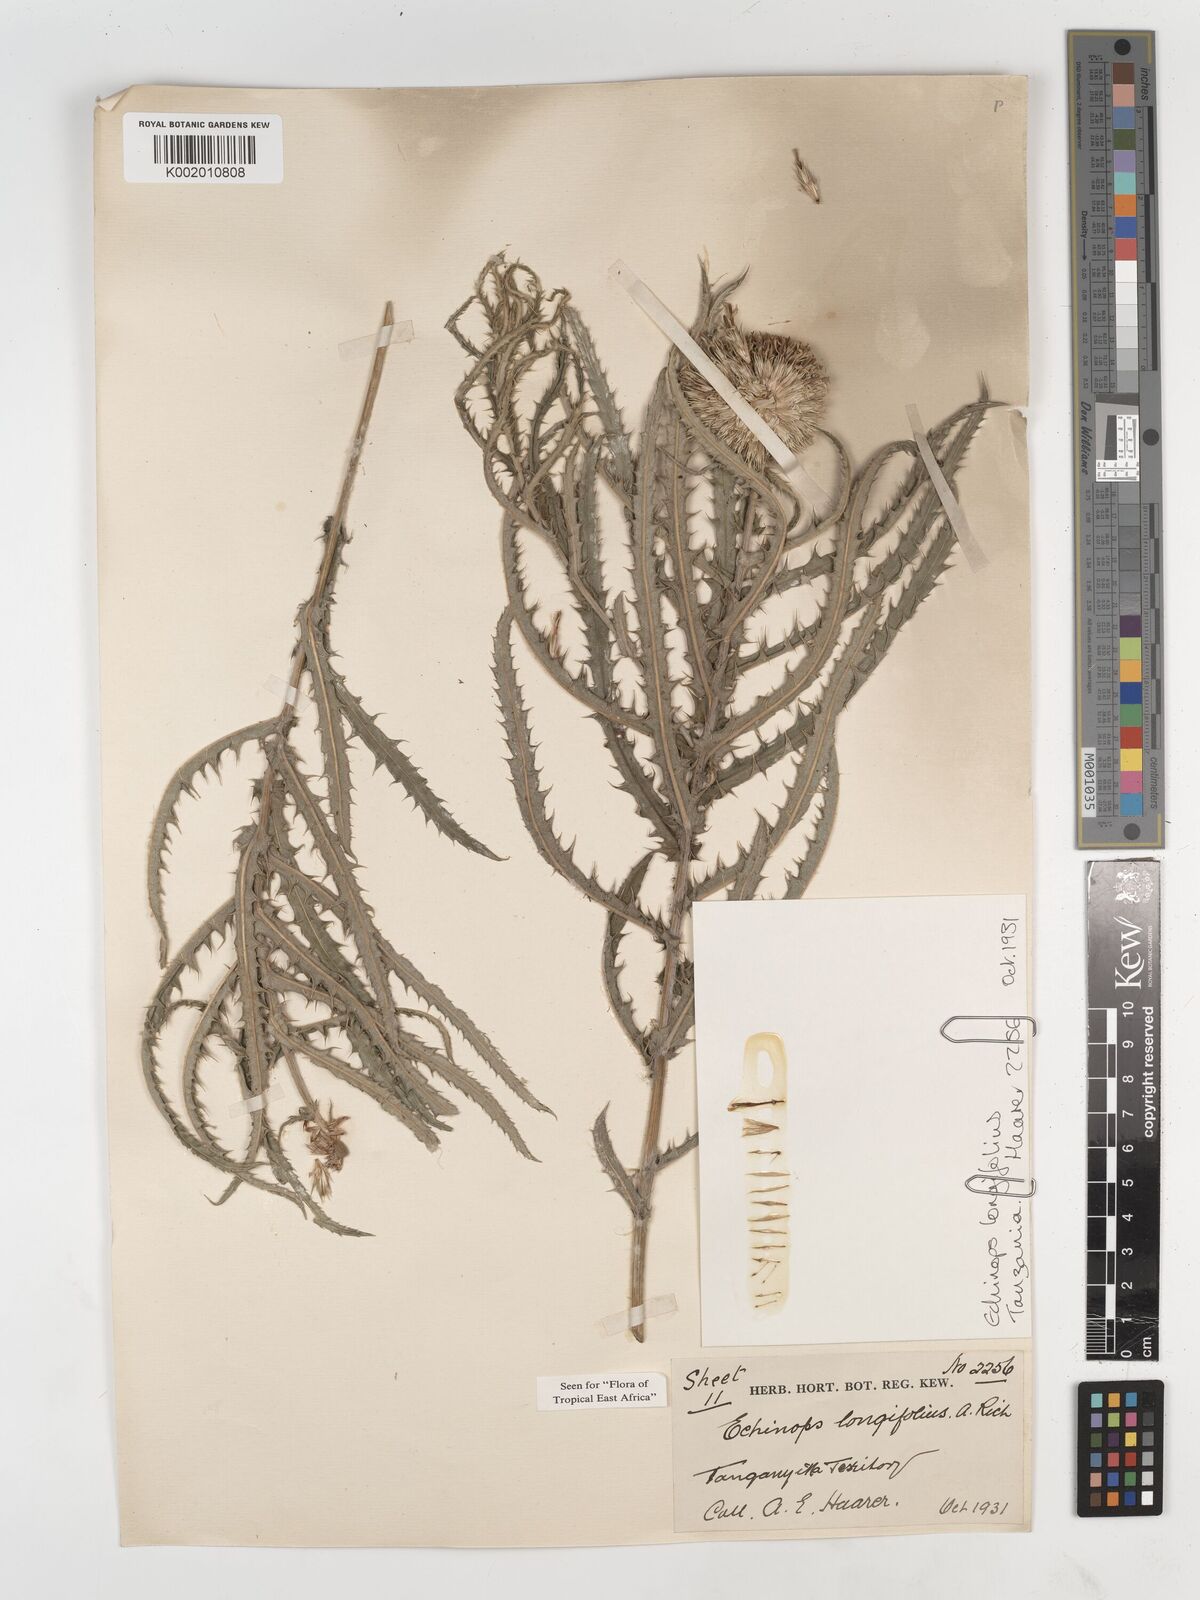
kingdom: Plantae
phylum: Tracheophyta
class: Magnoliopsida
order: Asterales
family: Asteraceae
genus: Echinops
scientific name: Echinops longifolius
